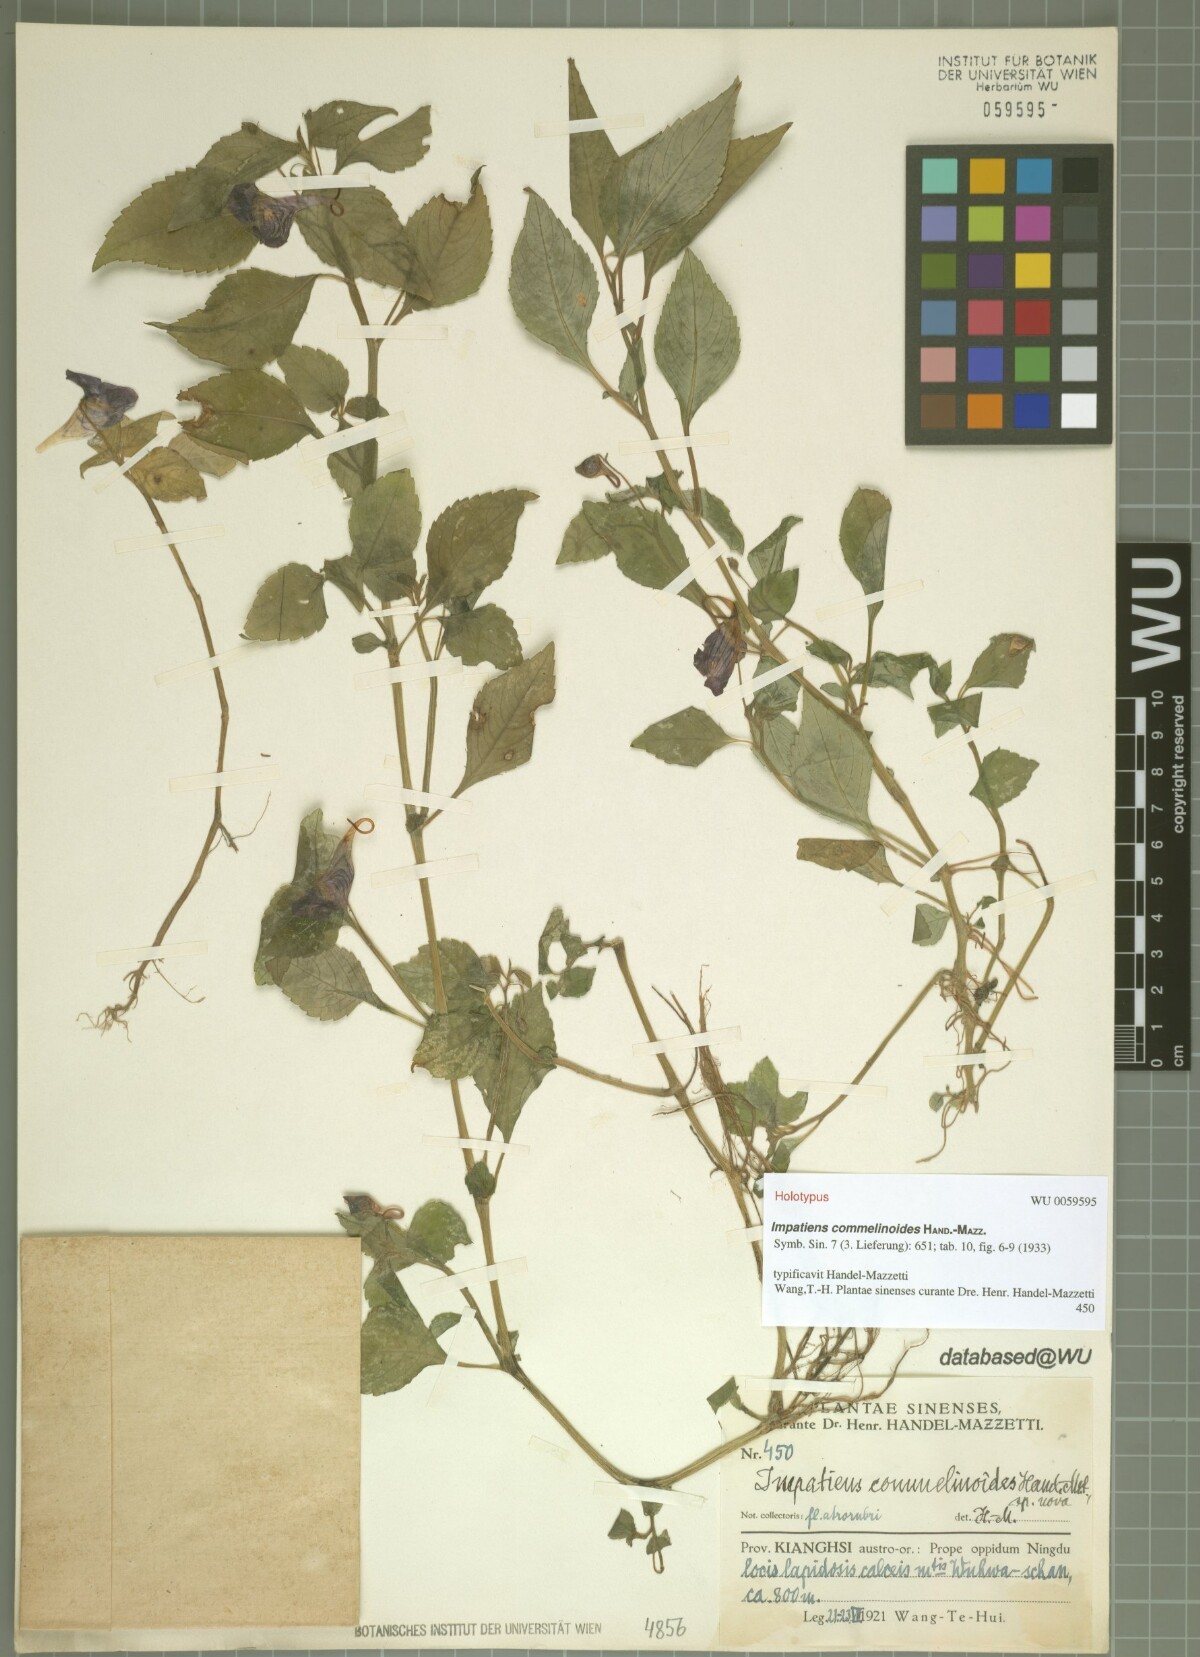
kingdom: Plantae
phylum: Tracheophyta
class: Magnoliopsida
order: Ericales
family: Balsaminaceae
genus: Impatiens
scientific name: Impatiens commelinoides
